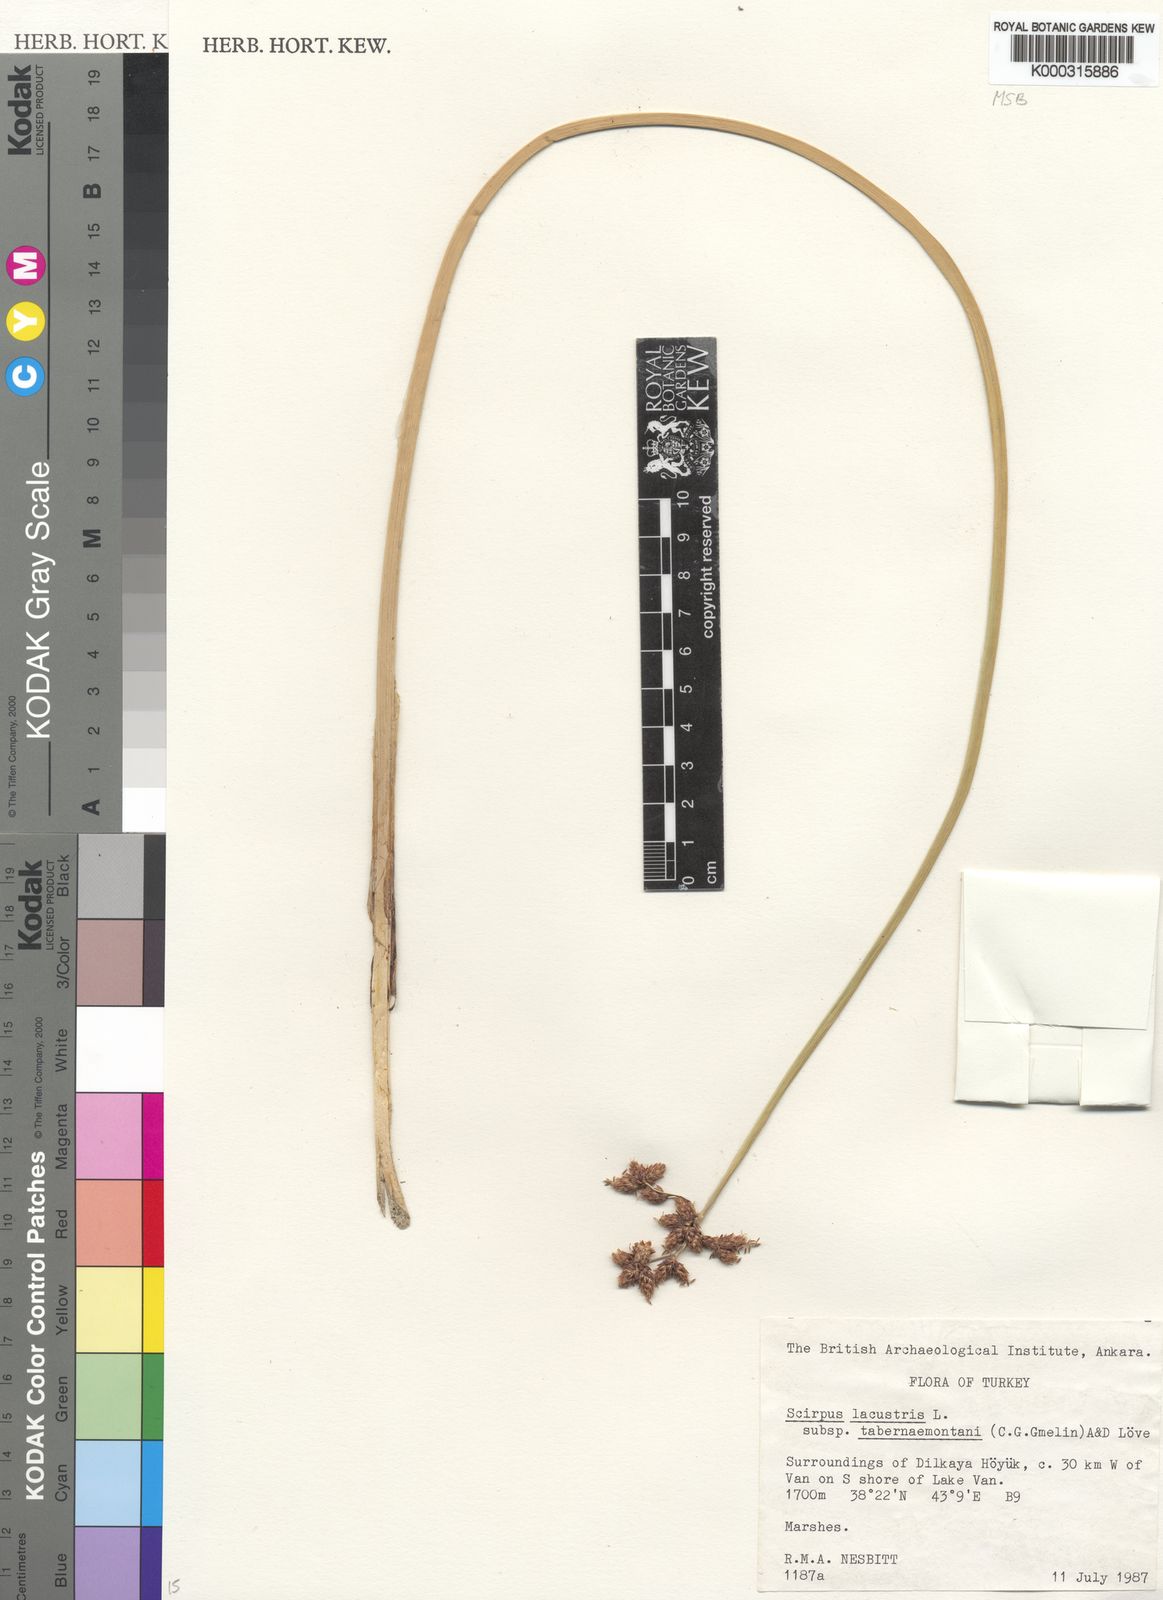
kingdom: Plantae
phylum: Tracheophyta
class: Liliopsida
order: Poales
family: Cyperaceae
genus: Schoenoplectus
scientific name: Schoenoplectus lacustris
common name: Common club-rush
